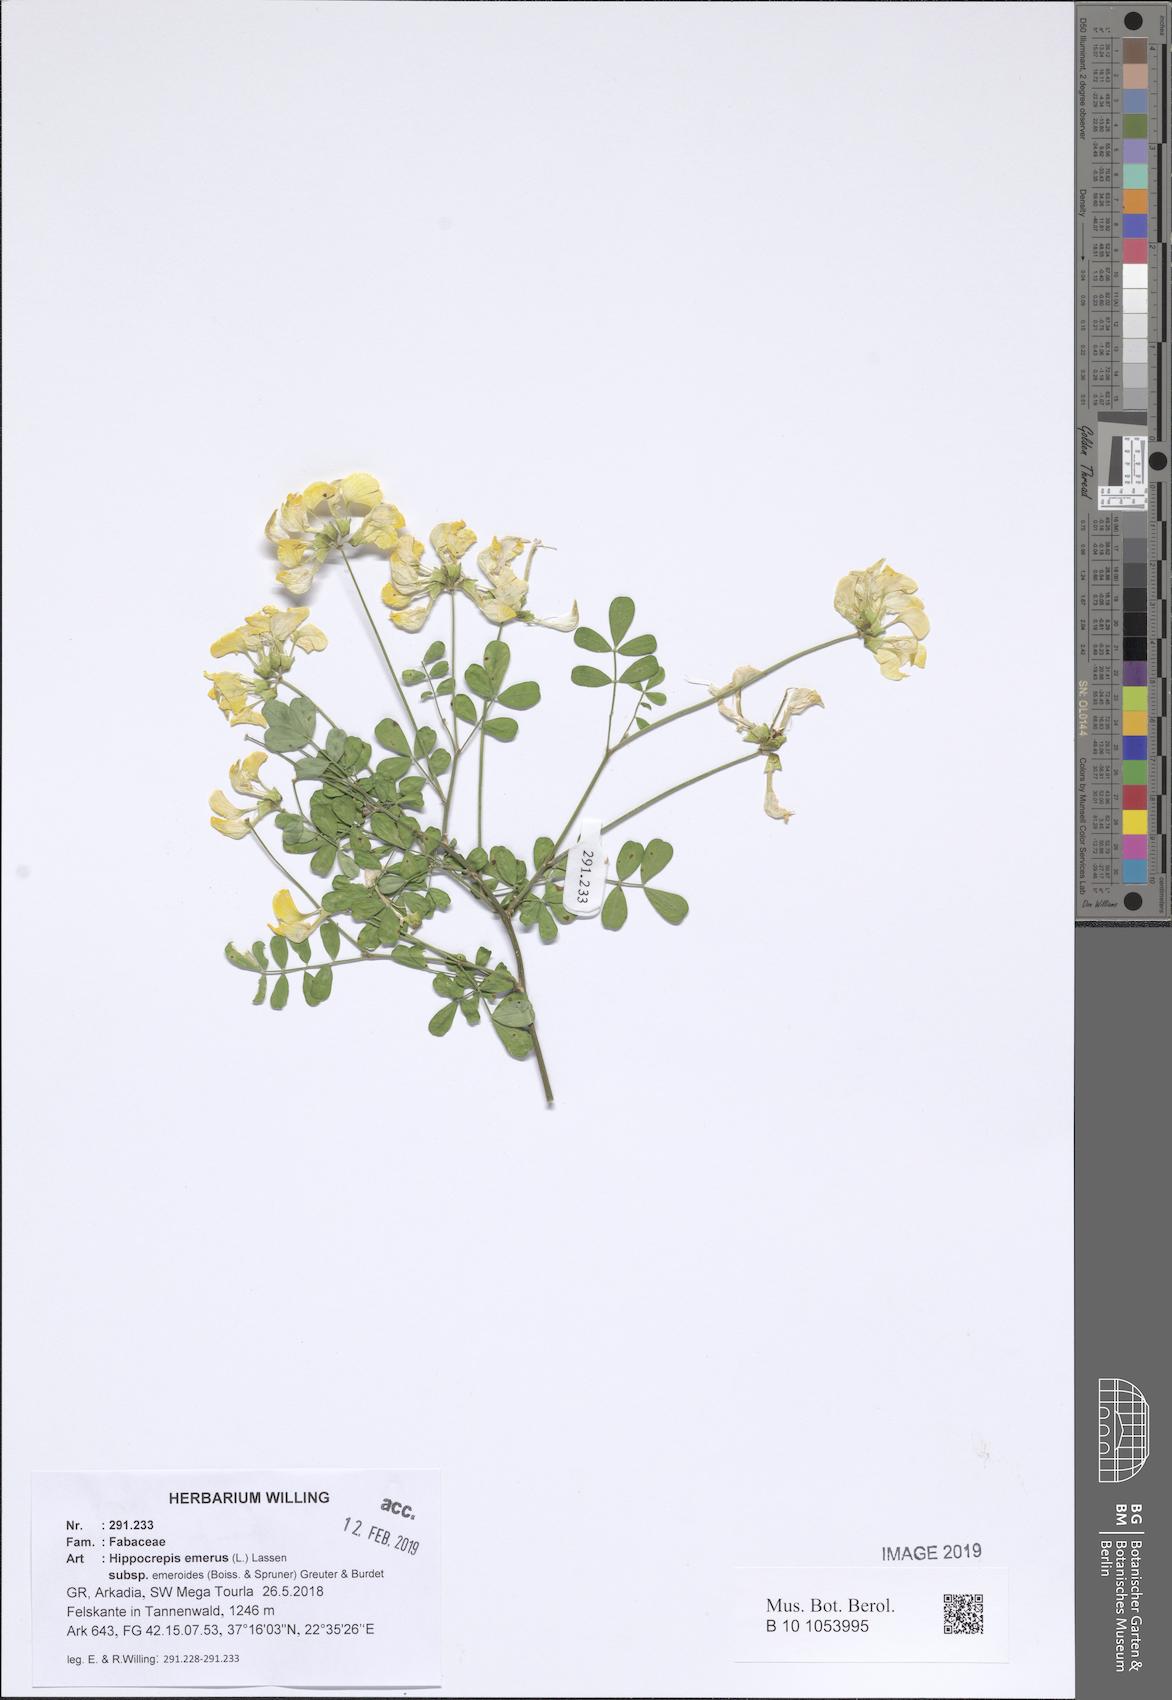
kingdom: Plantae
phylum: Tracheophyta
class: Magnoliopsida
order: Fabales
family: Fabaceae
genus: Hippocrepis
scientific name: Hippocrepis emerus
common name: Scorpion senna
